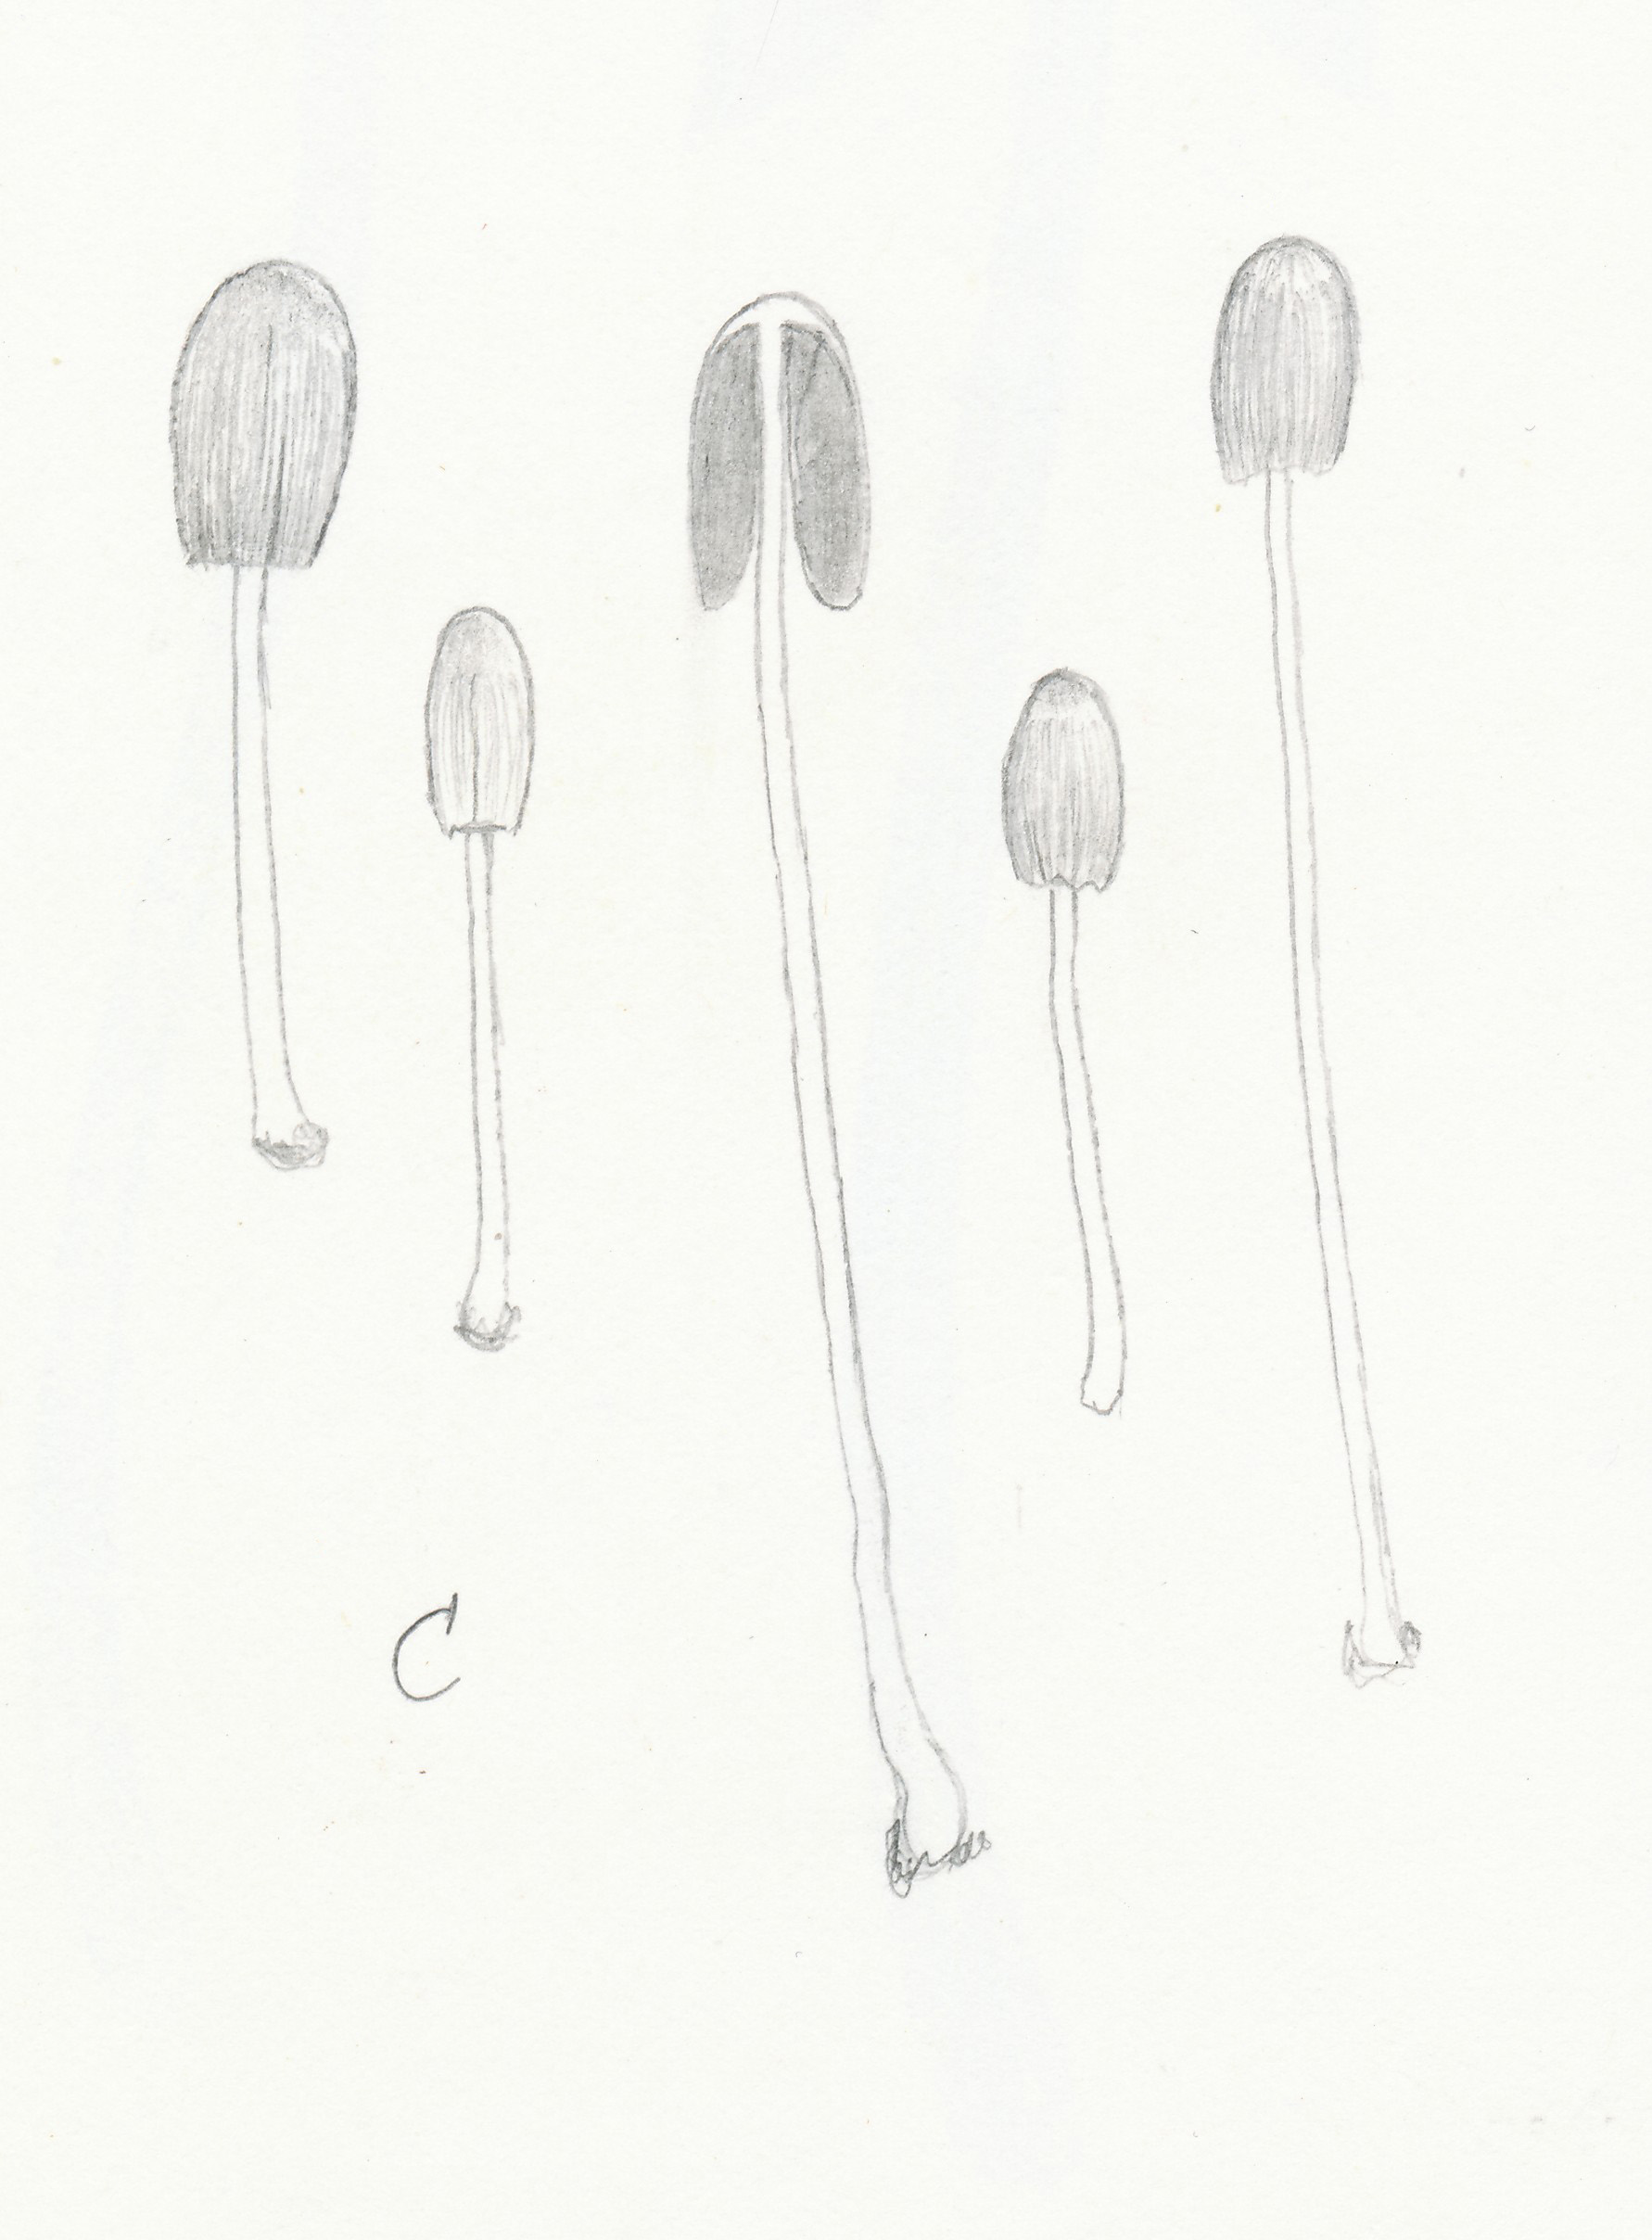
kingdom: Fungi
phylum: Basidiomycota
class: Agaricomycetes
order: Cantharellales
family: Hydnaceae
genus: Cantharellus
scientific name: Cantharellus pallens
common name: bleg kantarel
